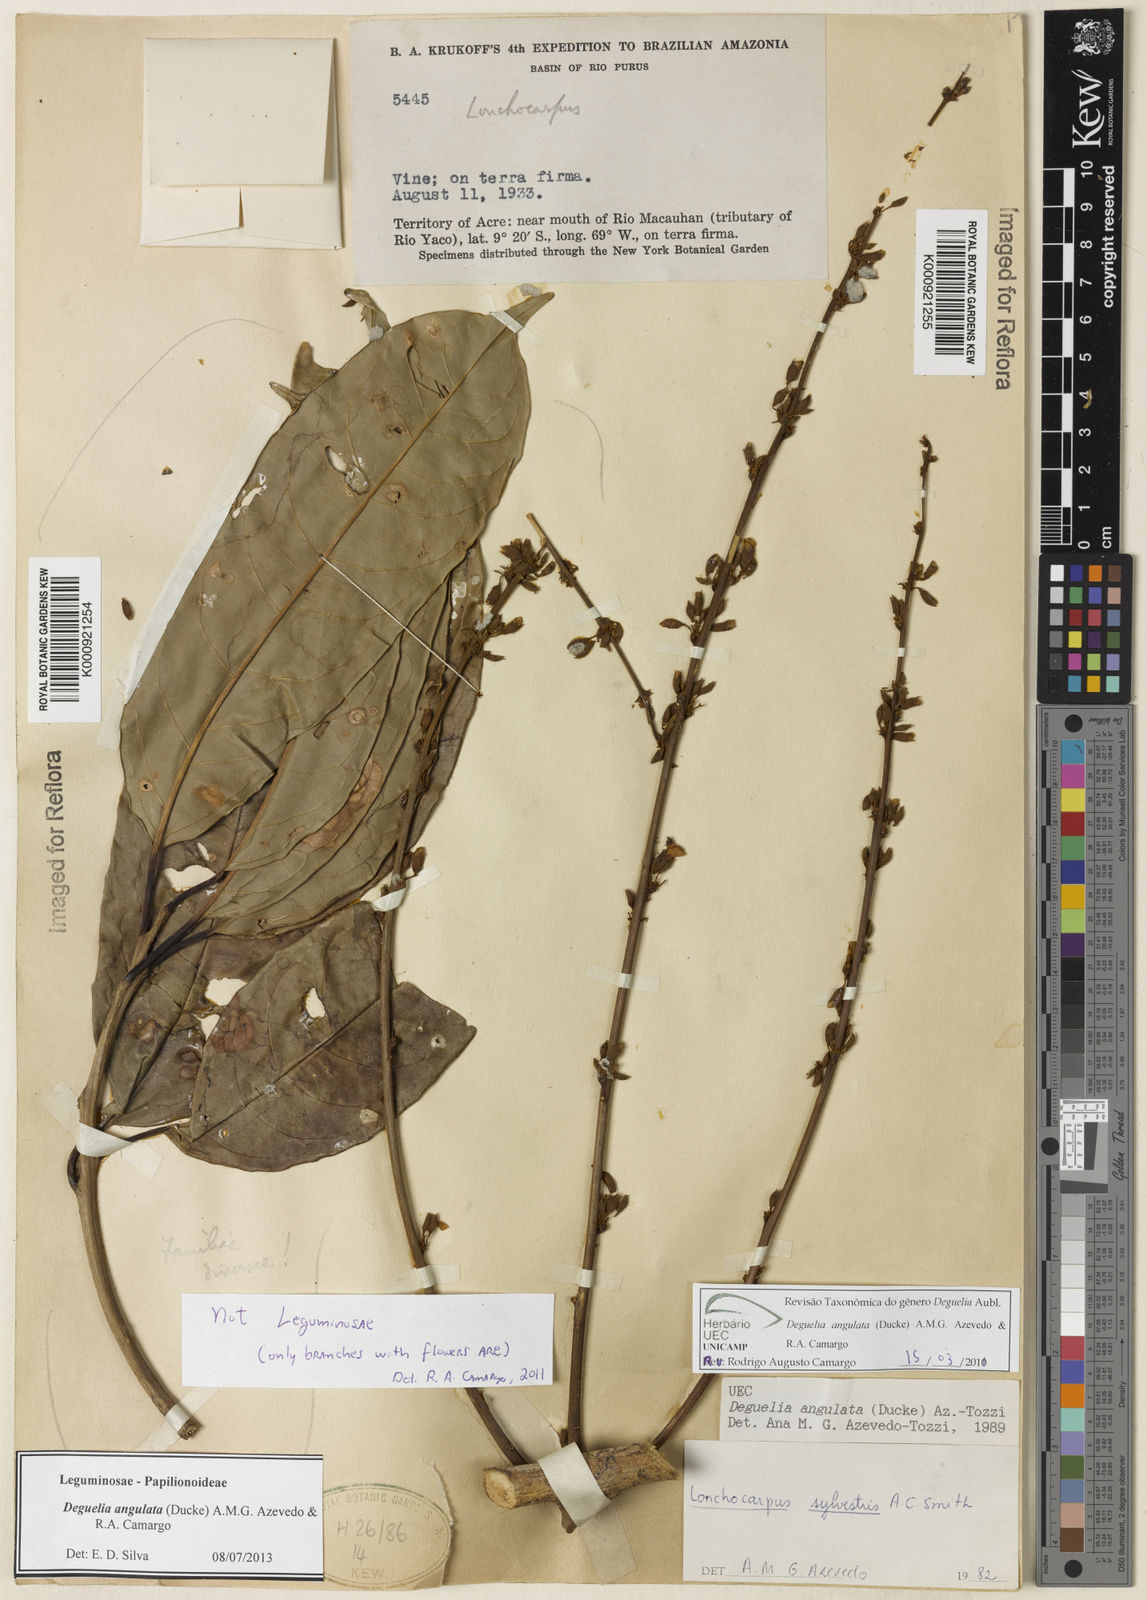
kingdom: Plantae
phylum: Tracheophyta
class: Magnoliopsida
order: Fabales
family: Fabaceae
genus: Deguelia
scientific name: Deguelia angulata
